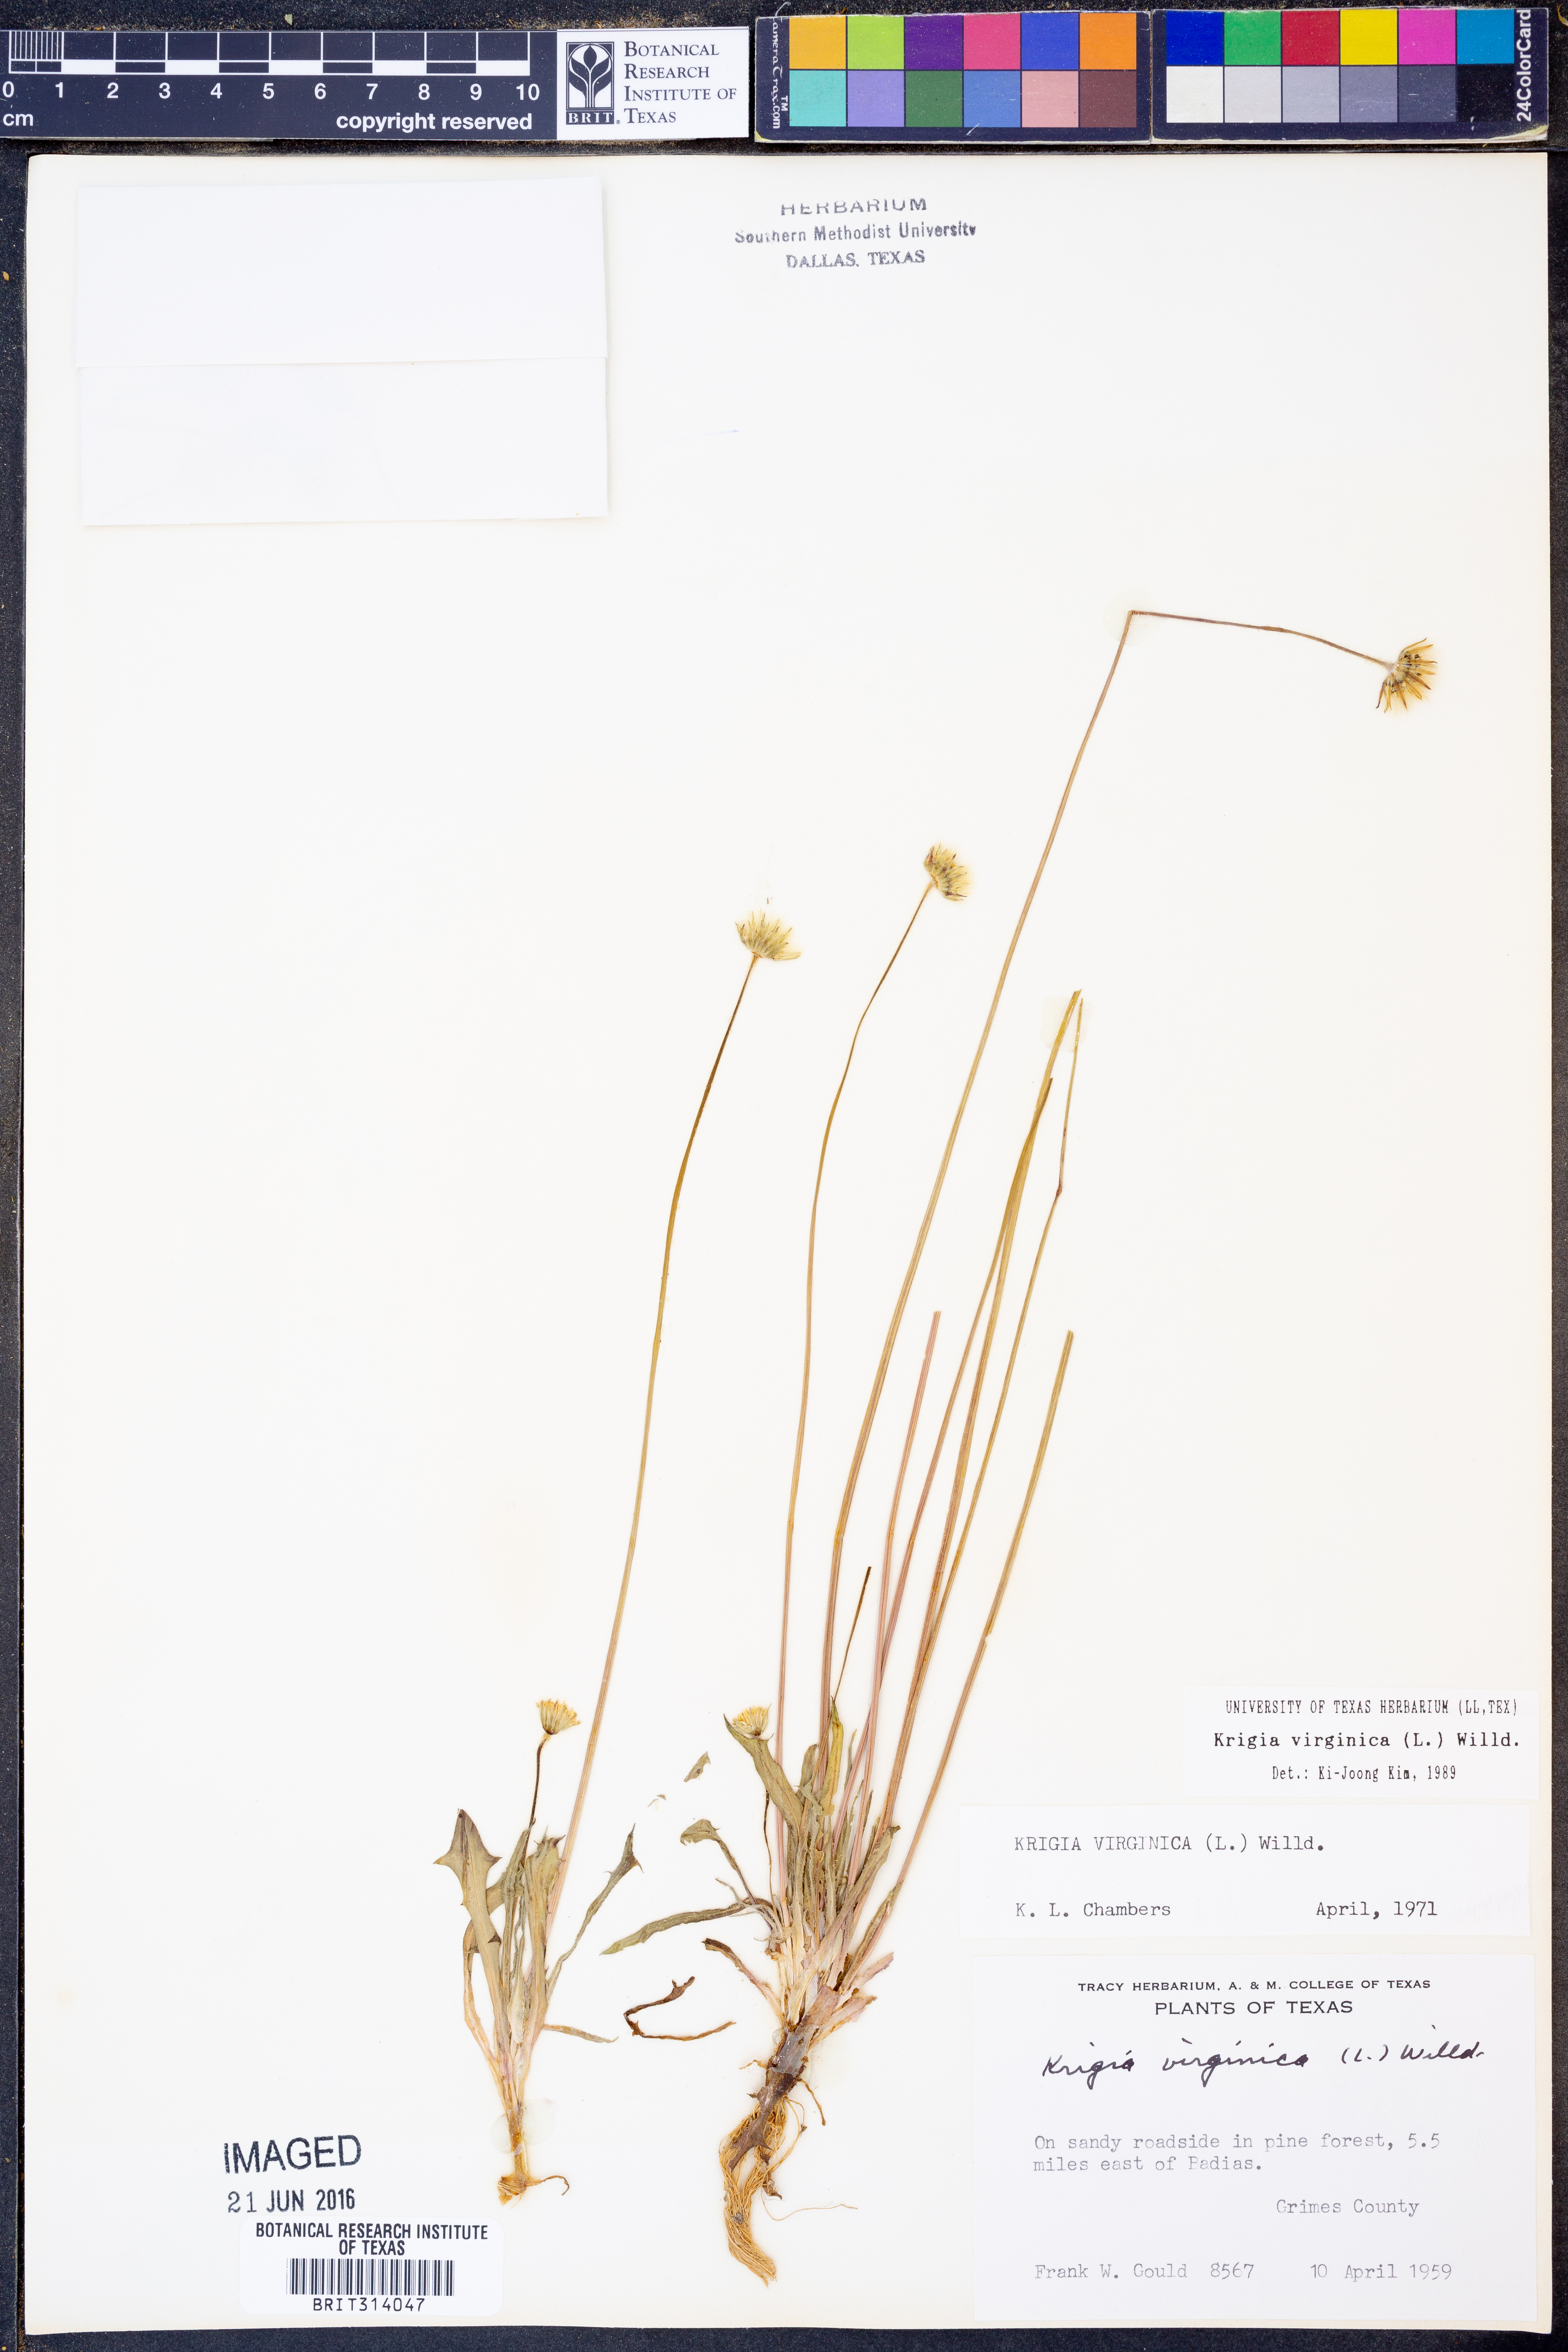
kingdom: Plantae
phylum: Tracheophyta
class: Magnoliopsida
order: Asterales
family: Asteraceae
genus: Krigia
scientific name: Krigia virginica
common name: Virginia dwarf-dandelion
